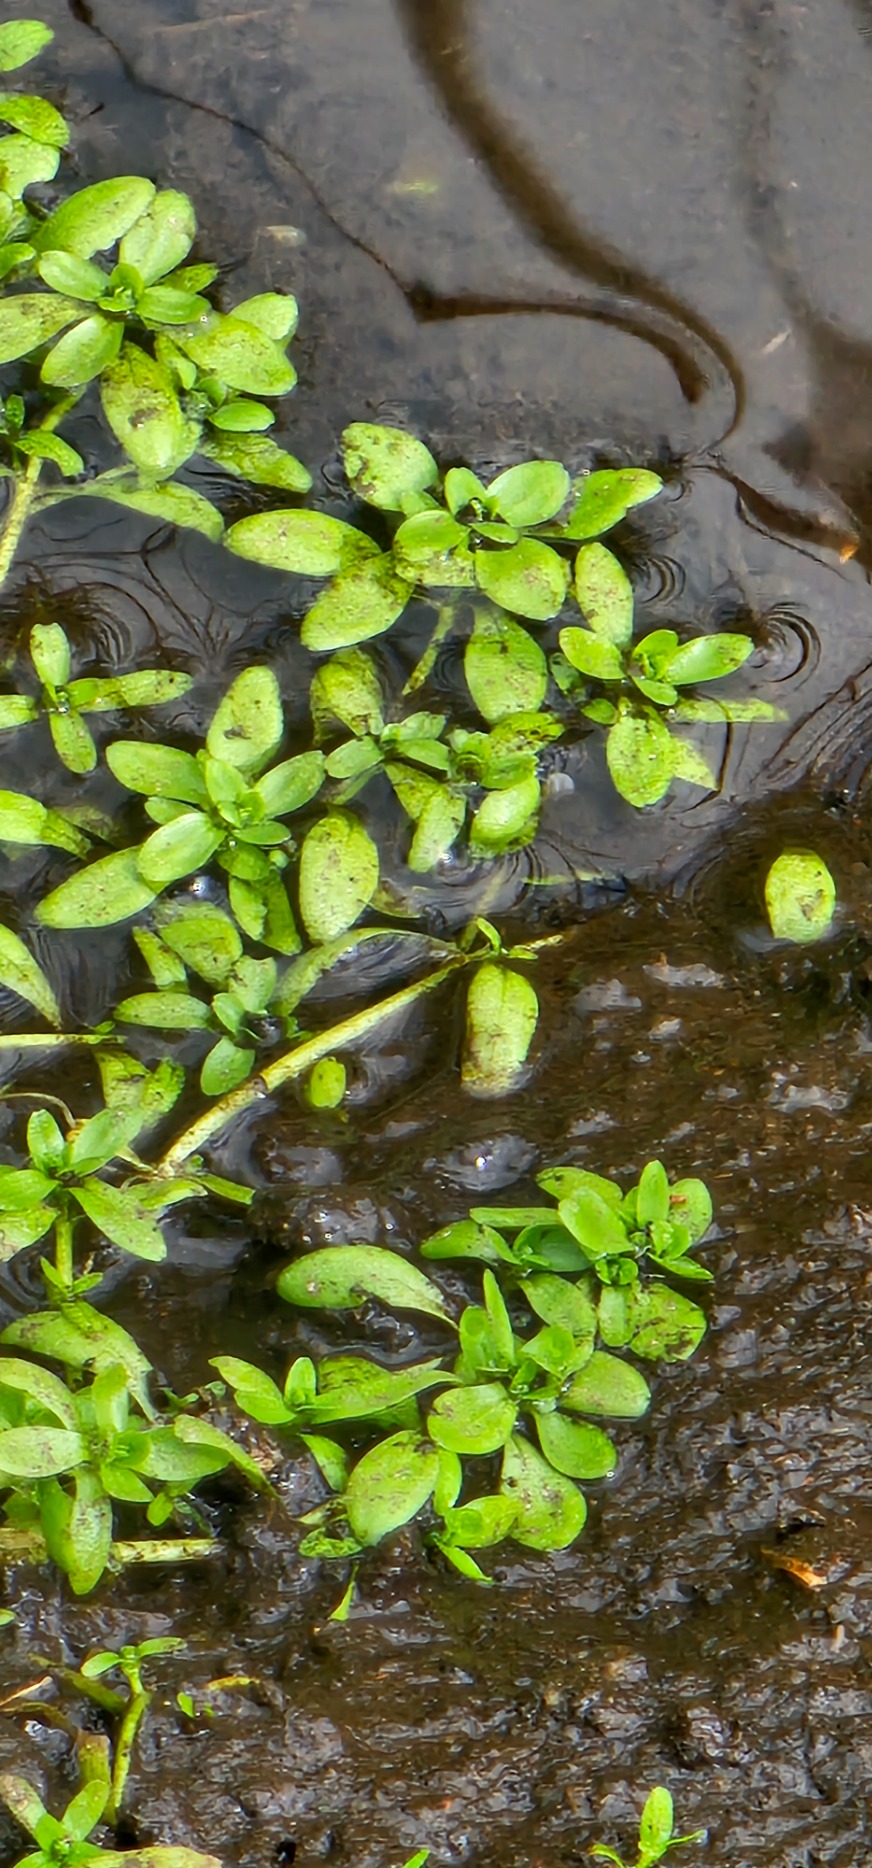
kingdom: Plantae
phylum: Tracheophyta
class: Magnoliopsida
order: Lamiales
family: Plantaginaceae
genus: Callitriche
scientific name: Callitriche
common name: Vandstjerneslægten
